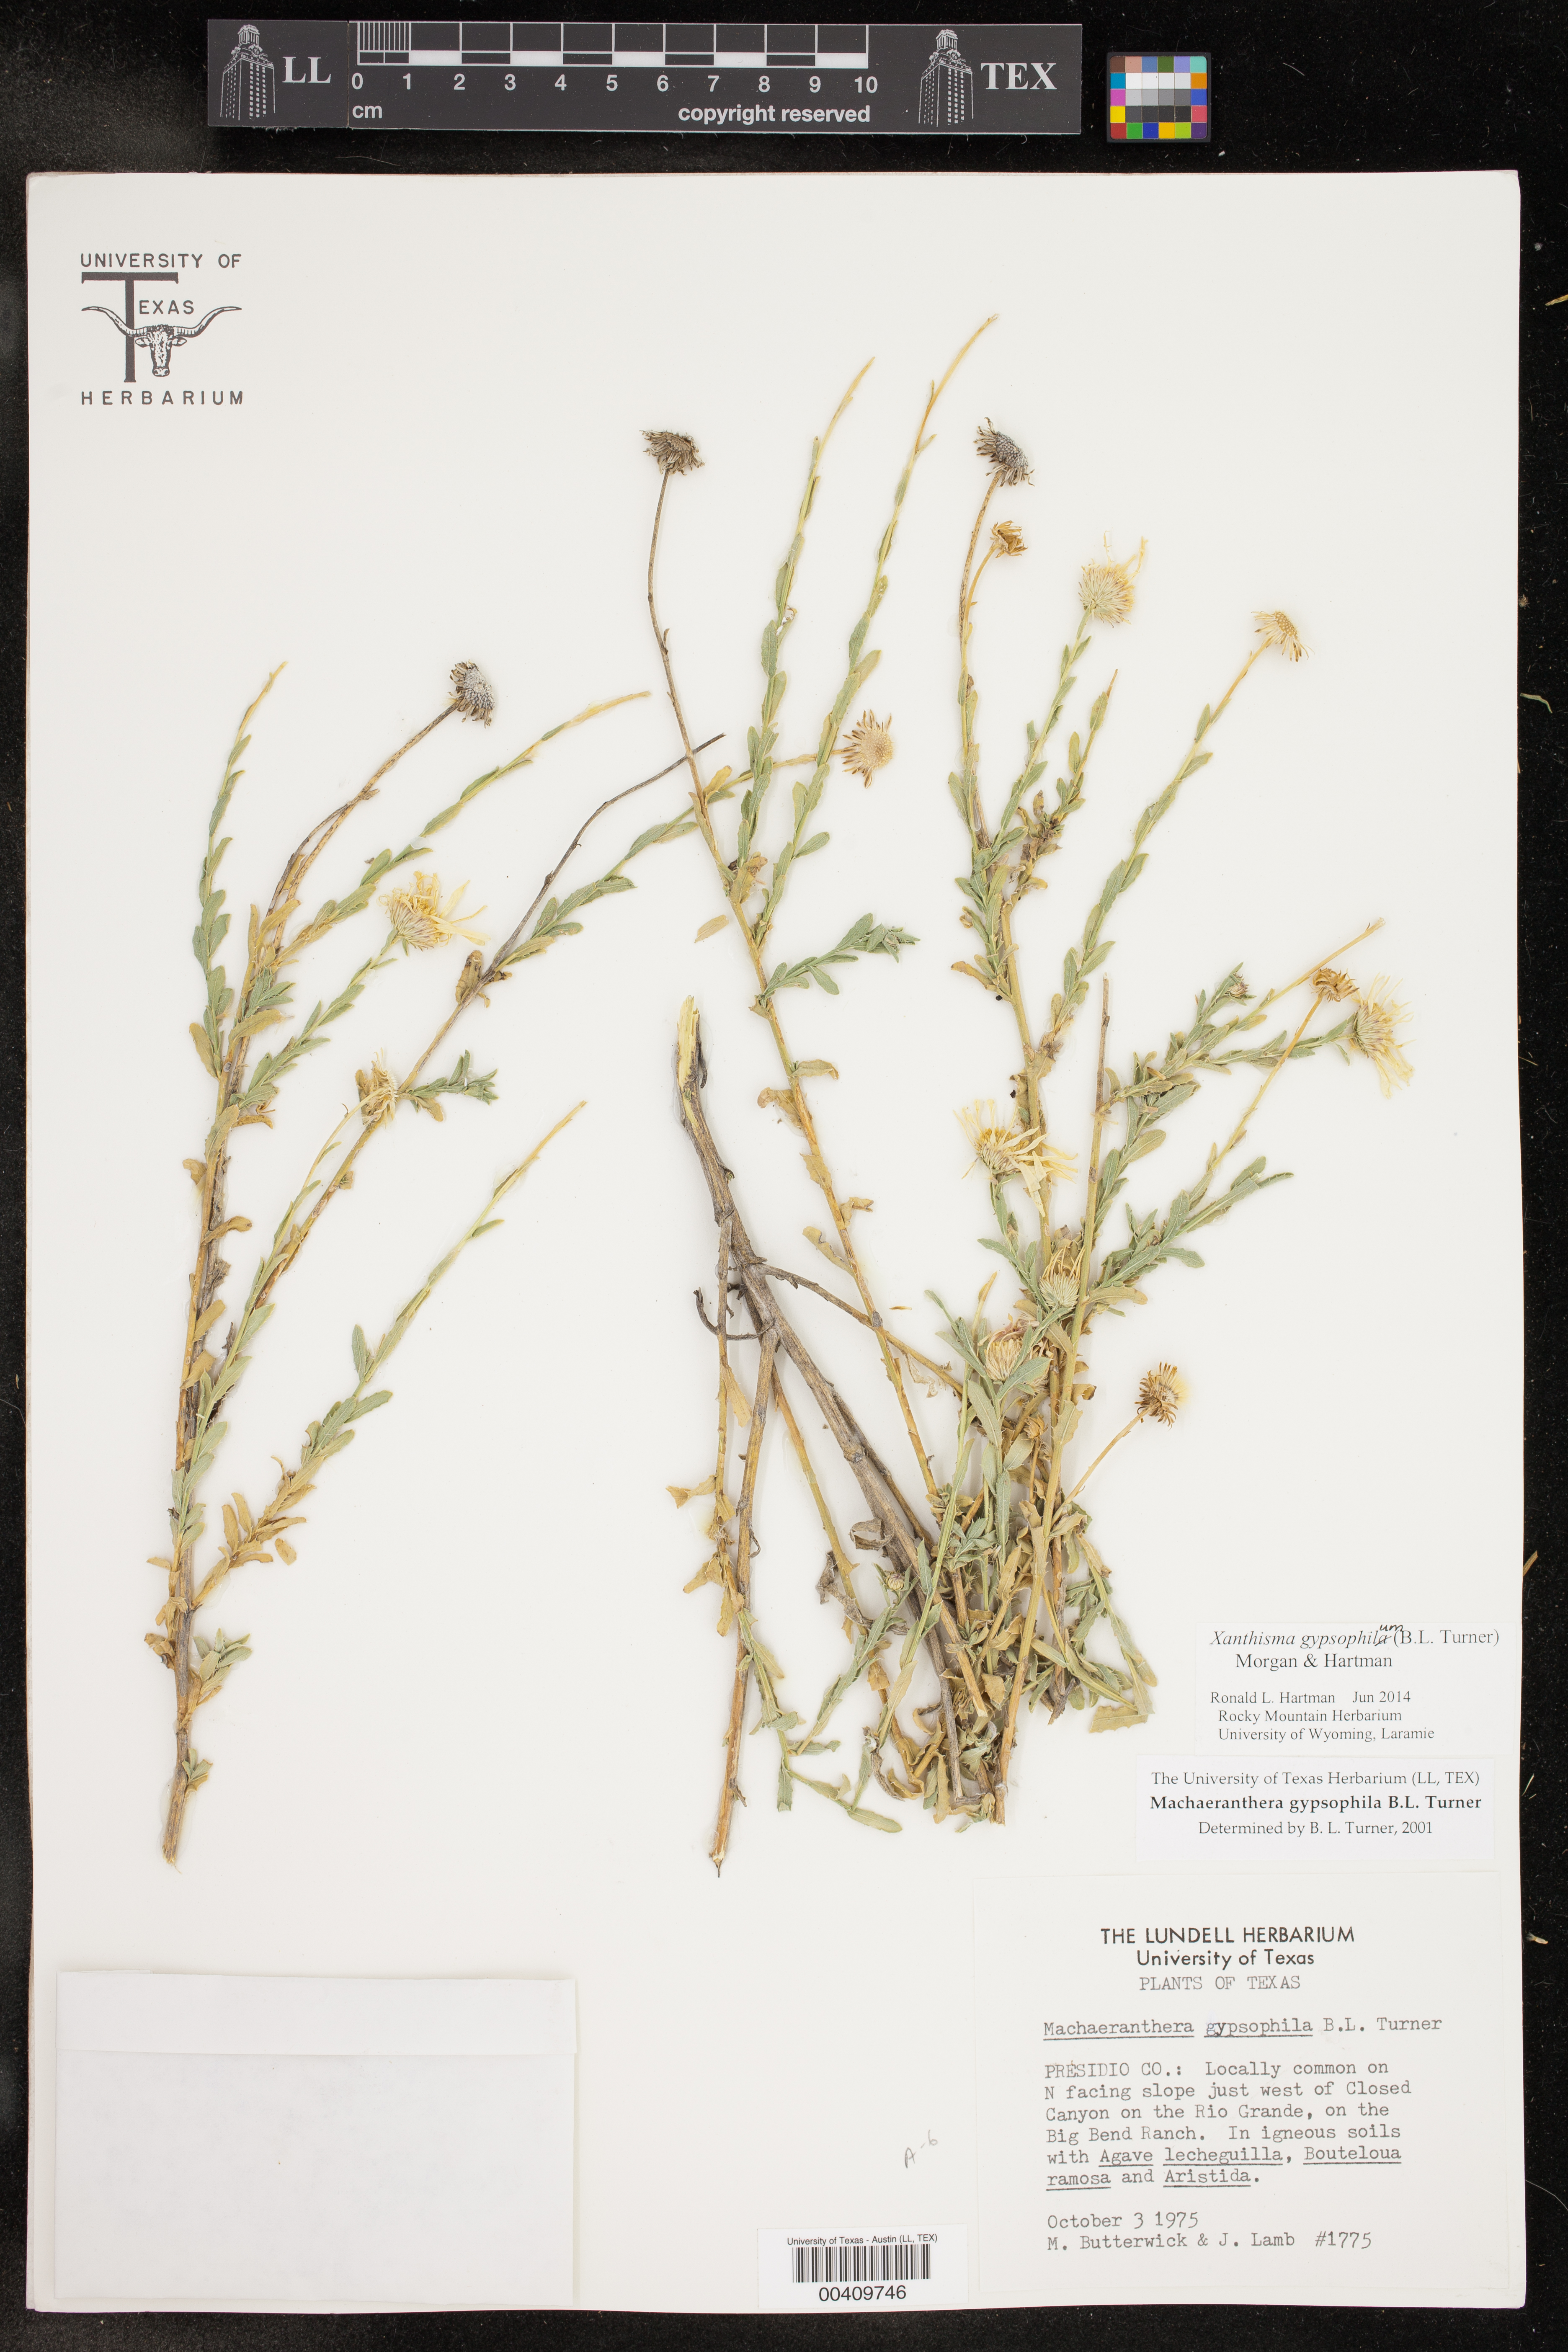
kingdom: Plantae
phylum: Tracheophyta
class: Magnoliopsida
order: Asterales
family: Asteraceae
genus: Xanthisma
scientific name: Xanthisma gypsophilum
